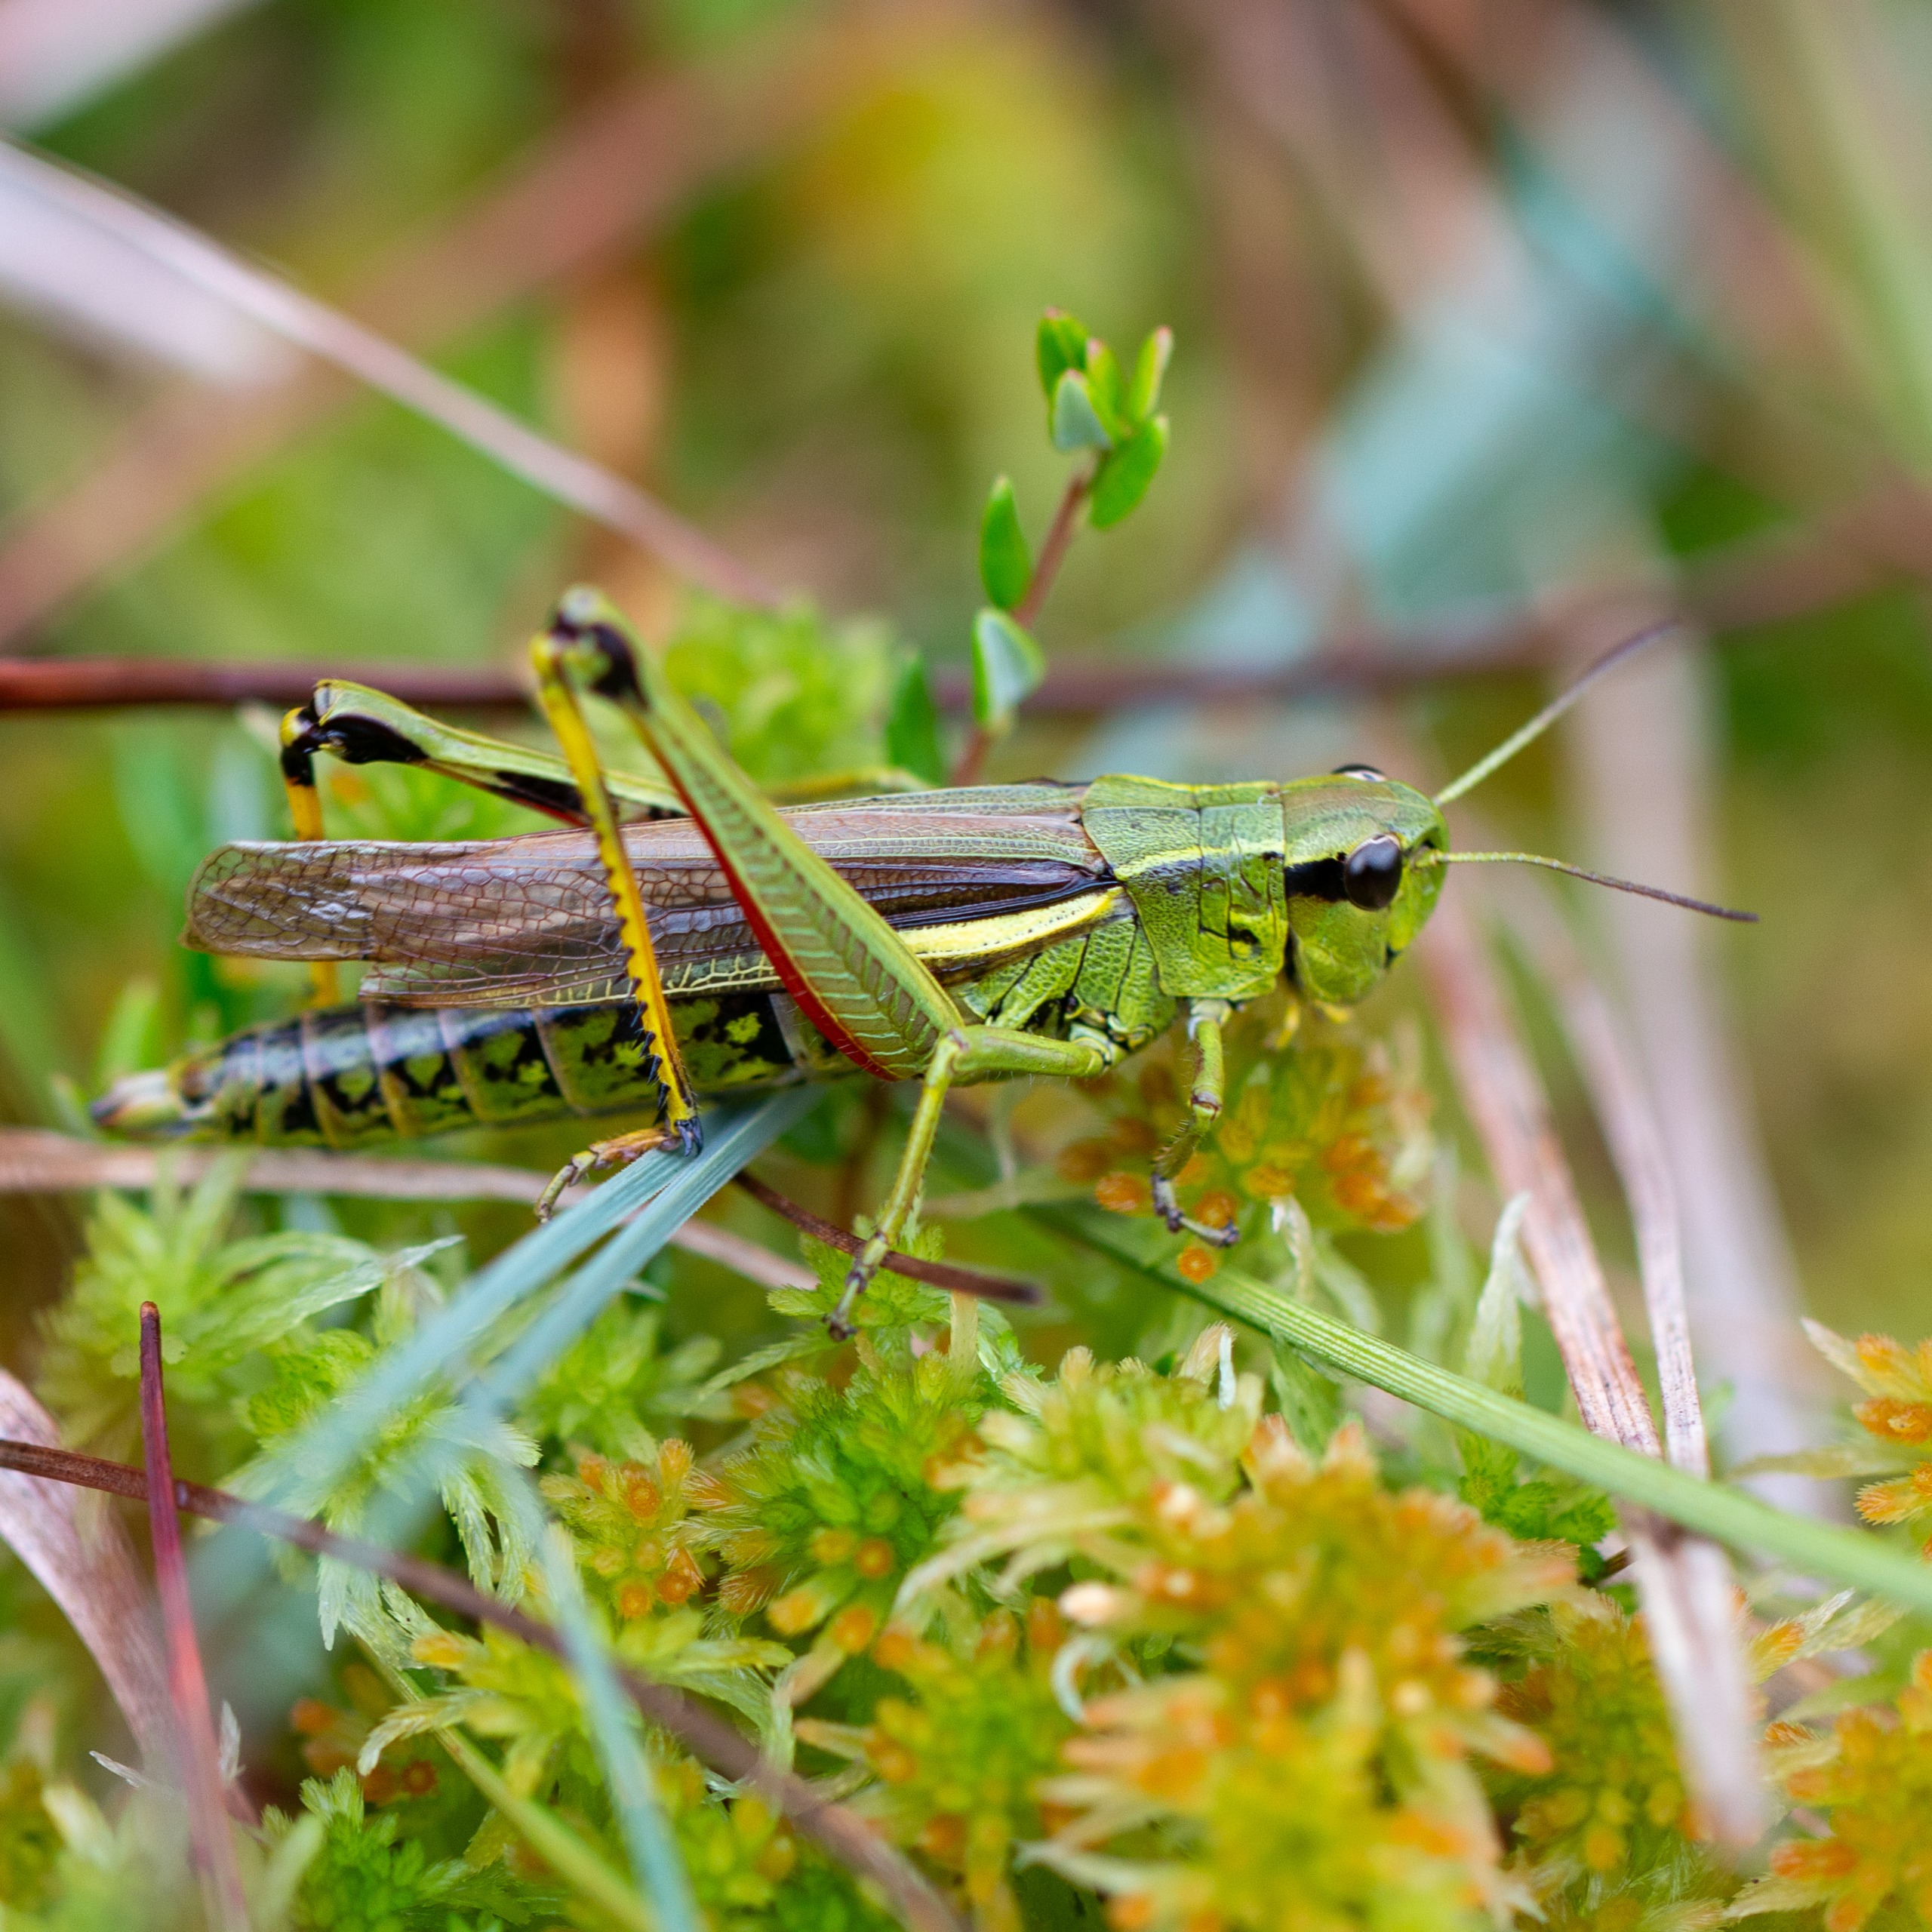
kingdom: Animalia
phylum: Arthropoda
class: Insecta
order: Orthoptera
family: Acrididae
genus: Stethophyma
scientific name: Stethophyma grossum
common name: Sumpgræshoppe
